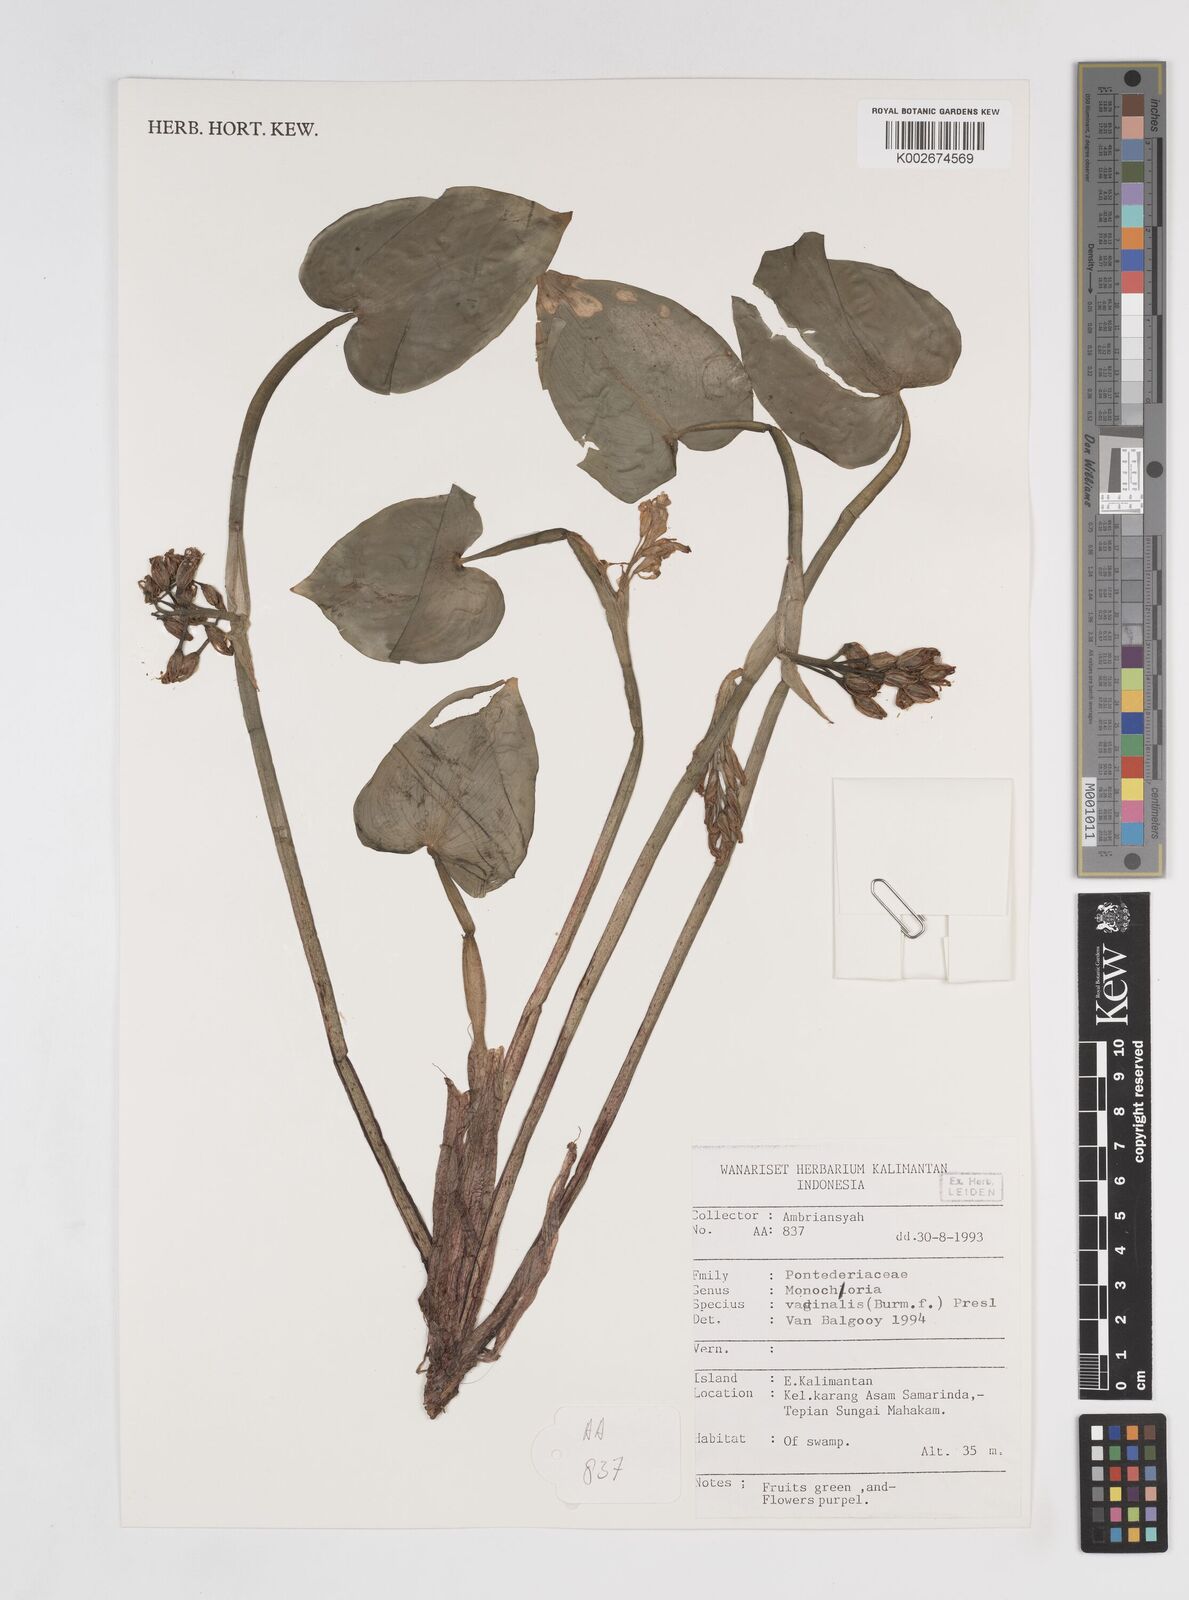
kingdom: Plantae
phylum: Tracheophyta
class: Liliopsida
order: Commelinales
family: Pontederiaceae
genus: Pontederia
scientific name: Pontederia vaginalis
